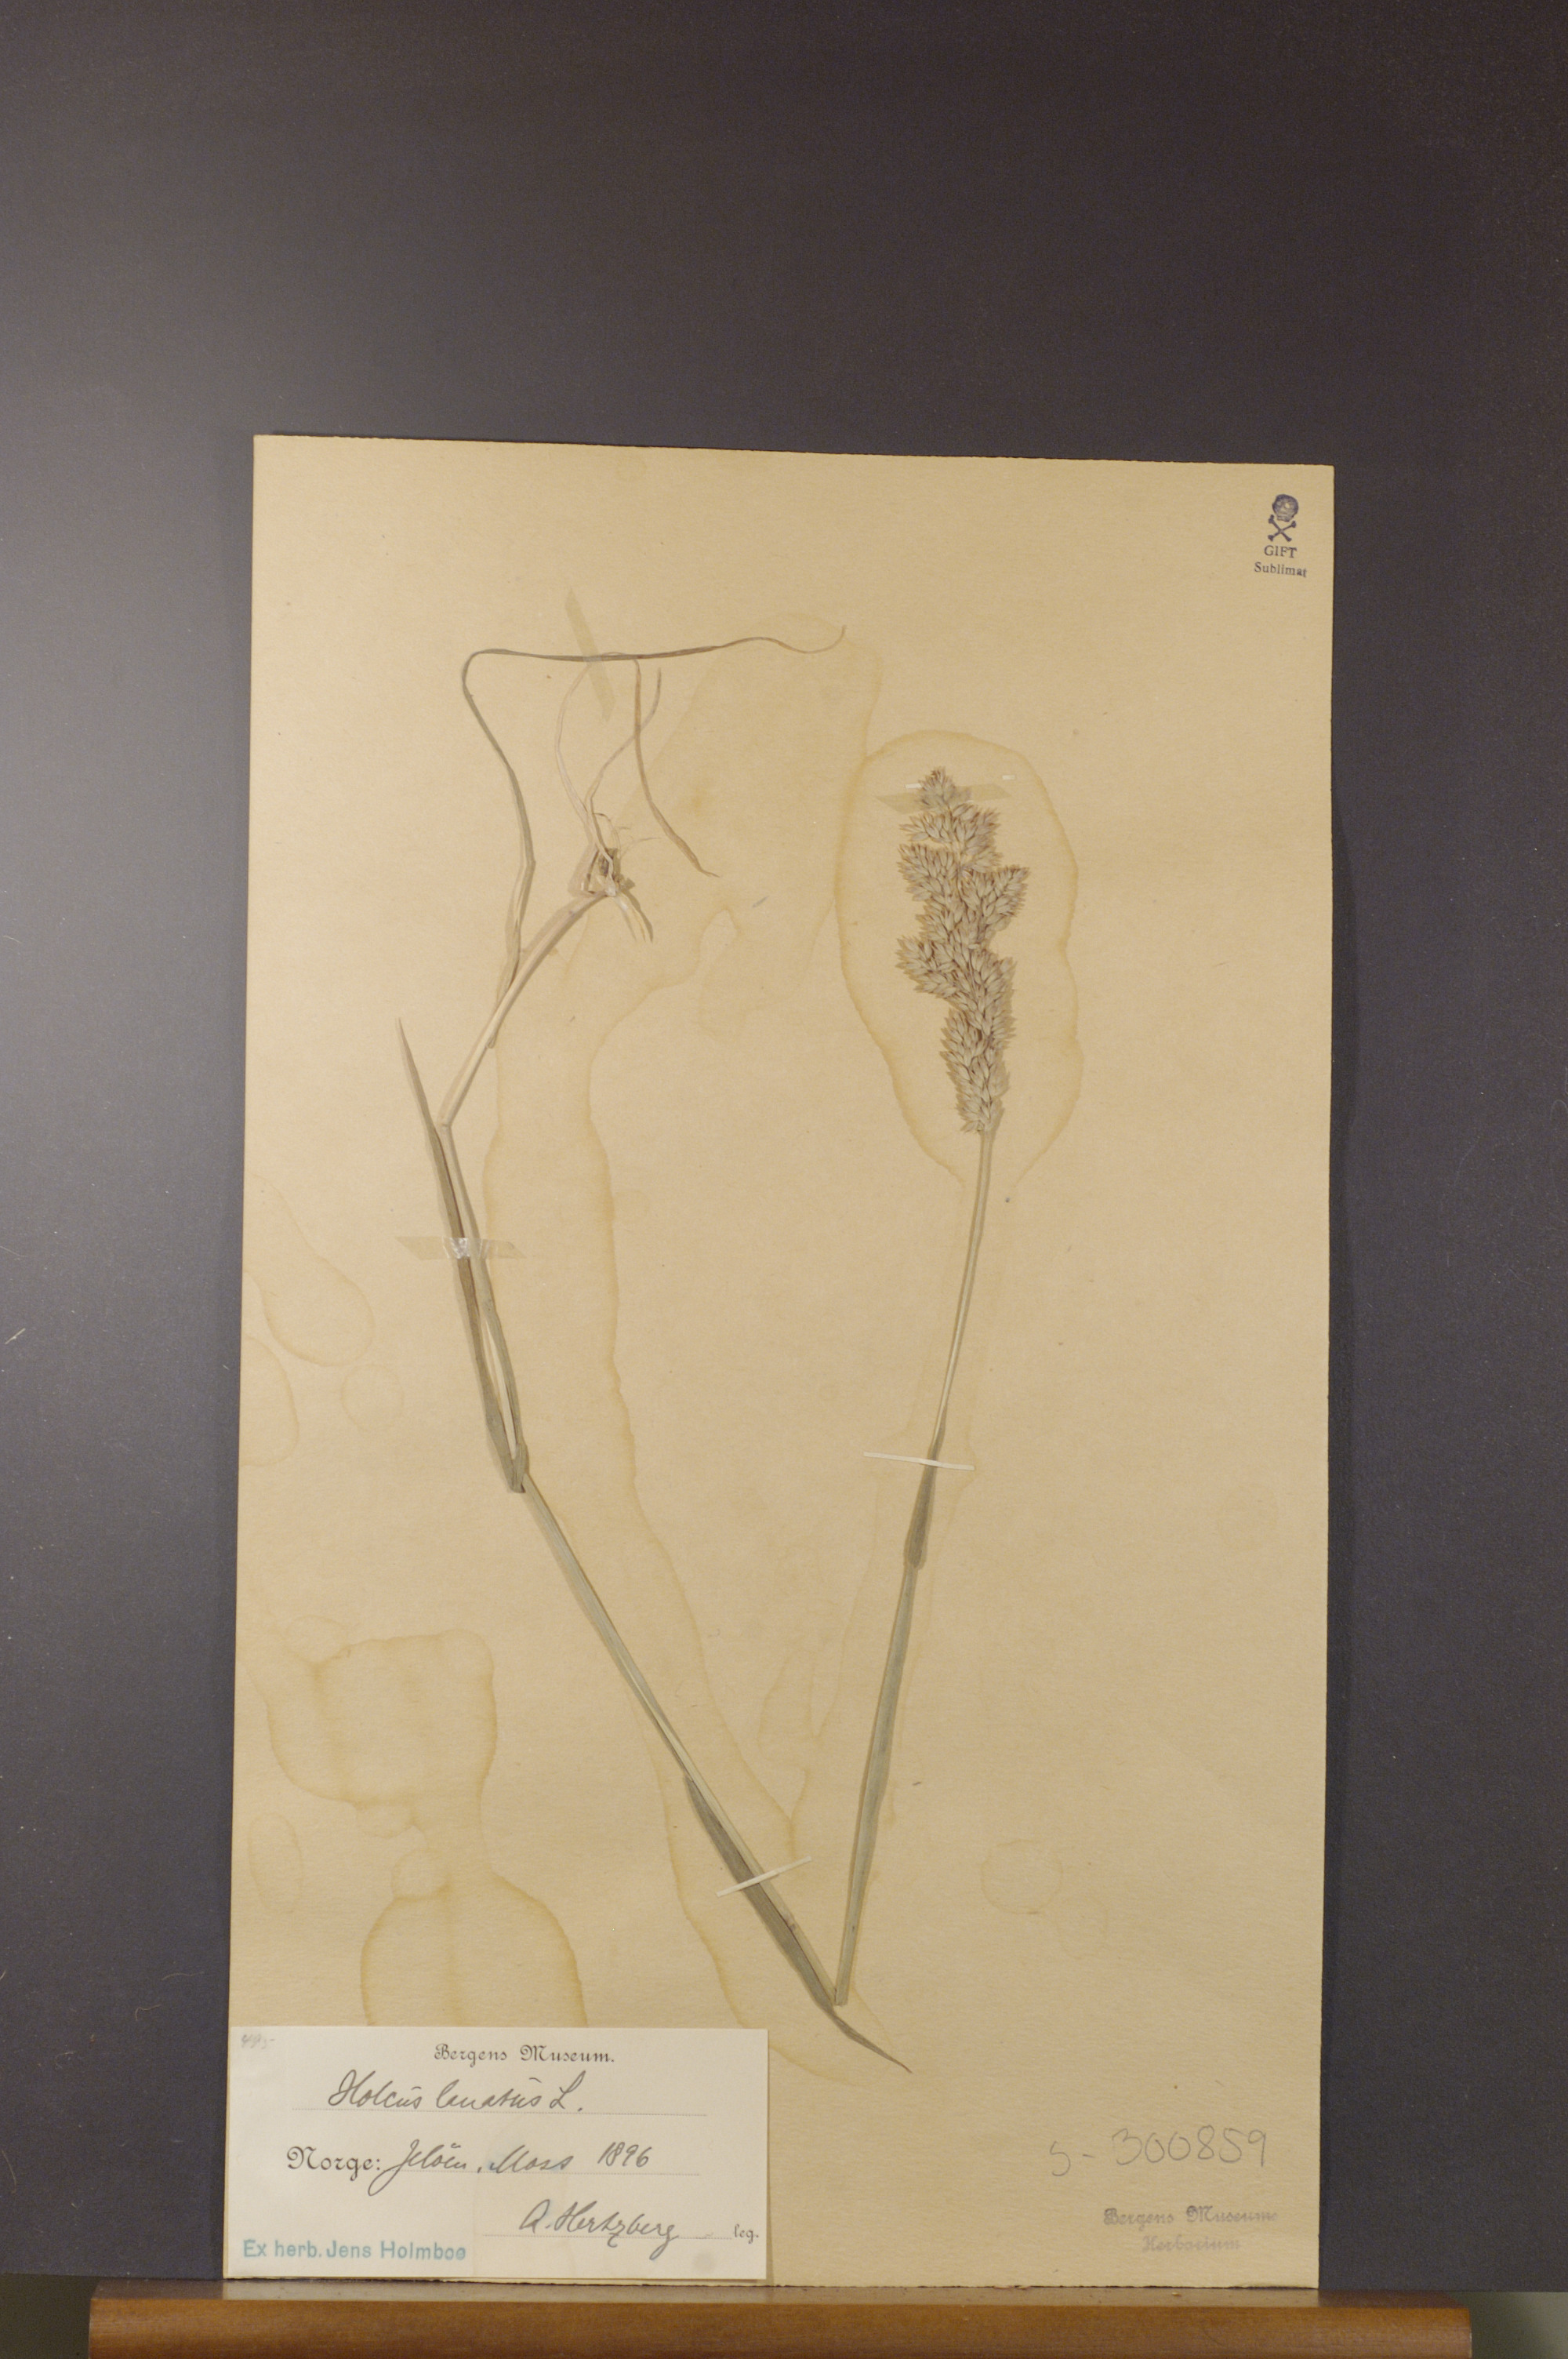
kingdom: Plantae
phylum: Tracheophyta
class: Liliopsida
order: Poales
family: Poaceae
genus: Holcus
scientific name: Holcus lanatus
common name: Yorkshire-fog
